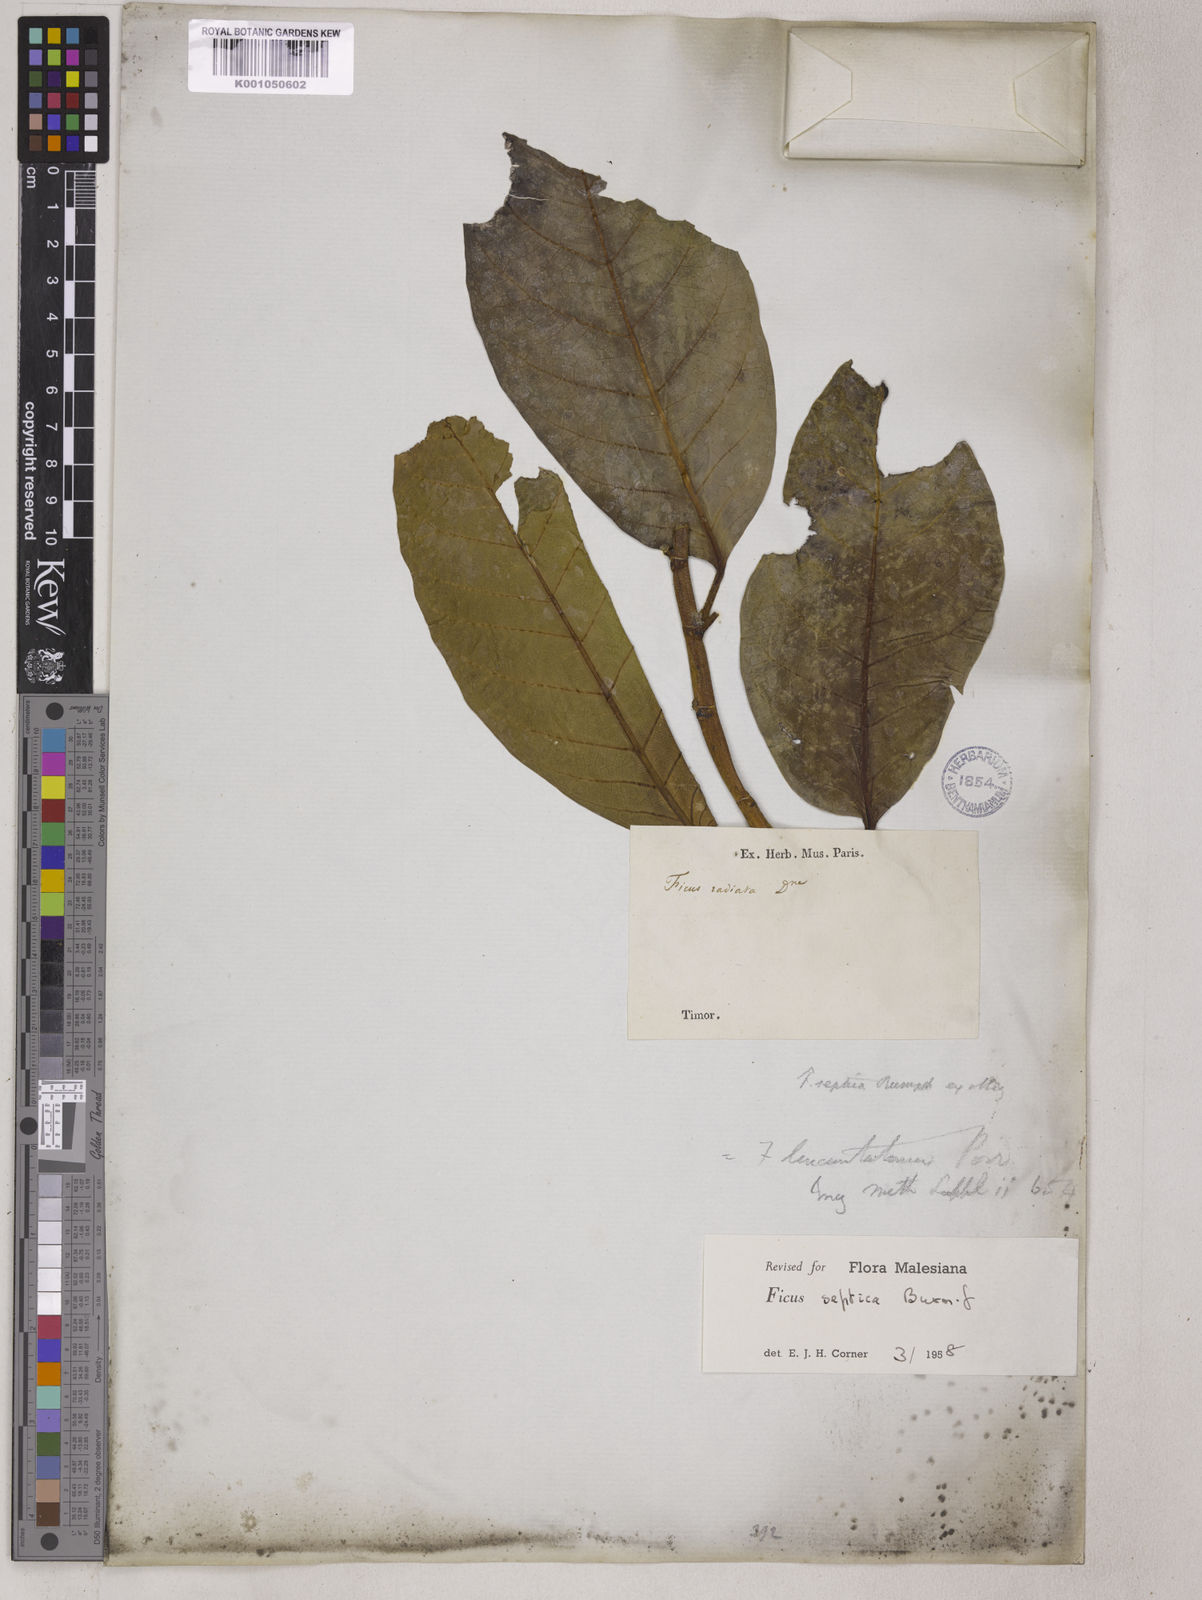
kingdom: Plantae
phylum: Tracheophyta
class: Magnoliopsida
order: Rosales
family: Moraceae
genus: Ficus
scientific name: Ficus septica
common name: Septic fig
